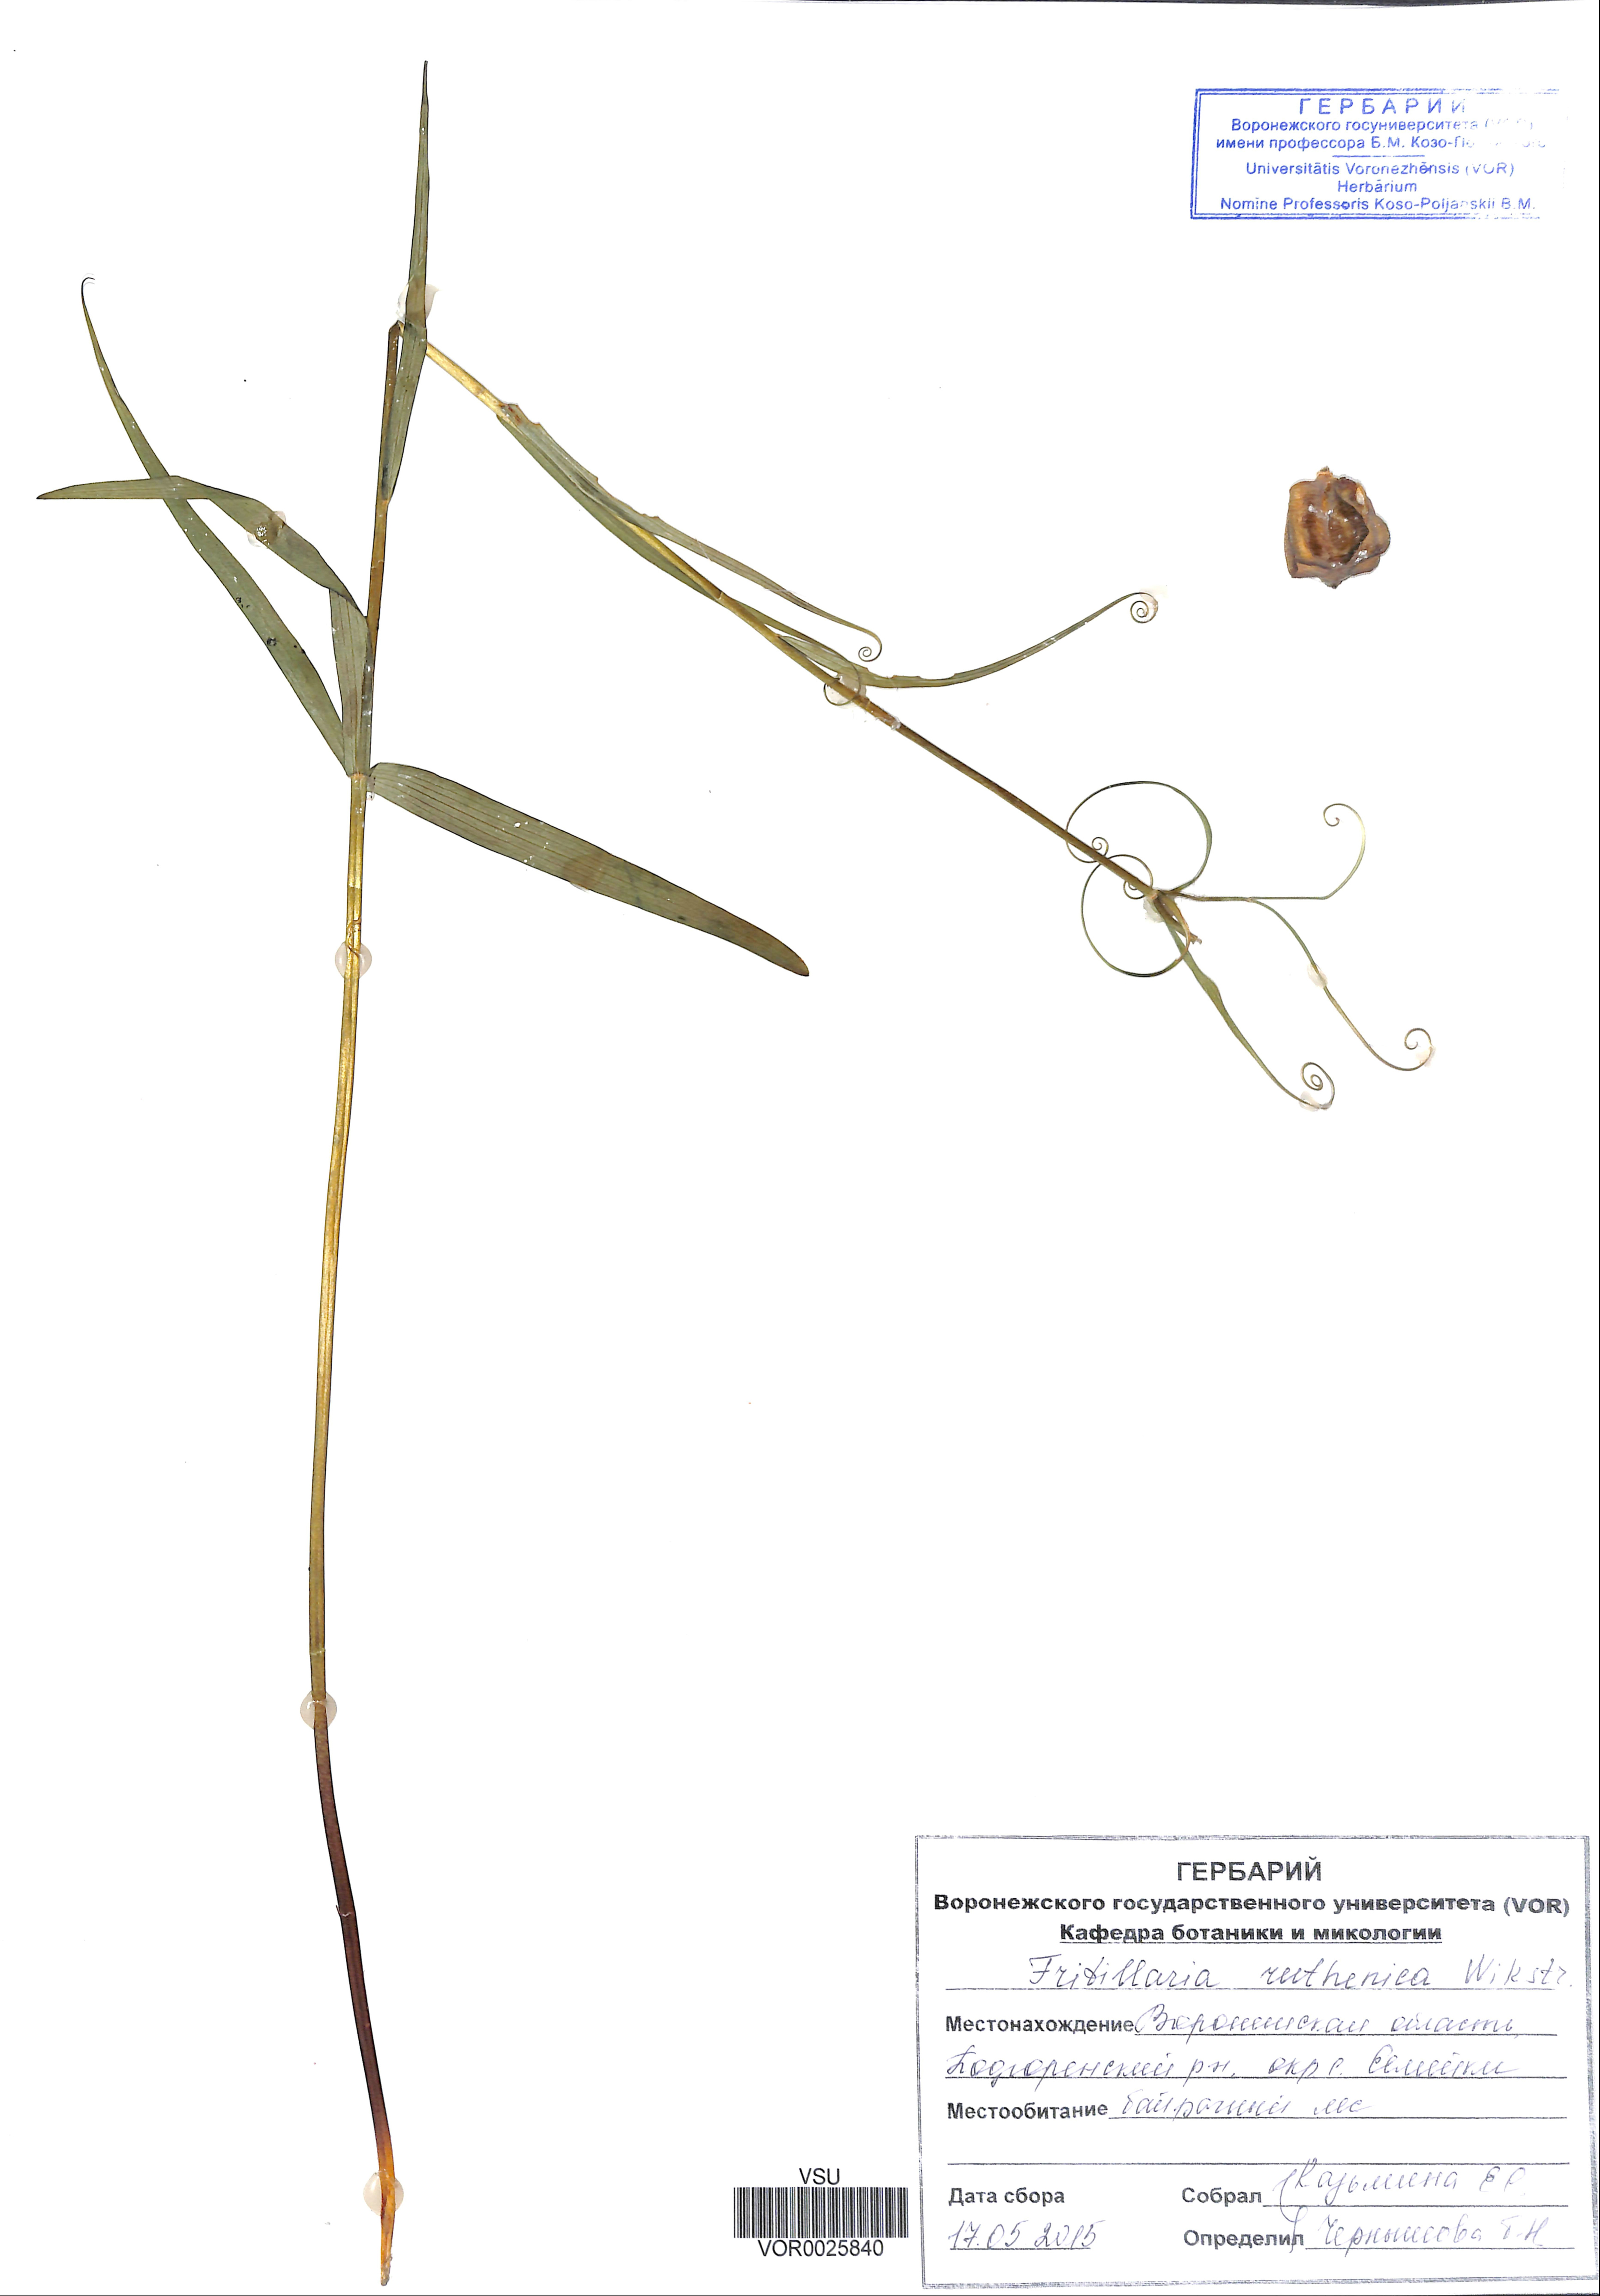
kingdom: Plantae
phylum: Tracheophyta
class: Liliopsida
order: Liliales
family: Liliaceae
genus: Fritillaria
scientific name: Fritillaria ruthenica
